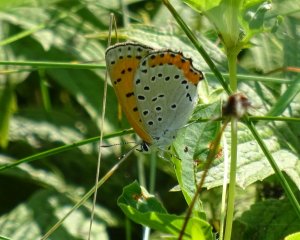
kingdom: Animalia
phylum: Arthropoda
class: Insecta
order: Lepidoptera
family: Sesiidae
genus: Sesia
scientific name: Sesia Lycaena hyllus
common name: Bronze Copper
